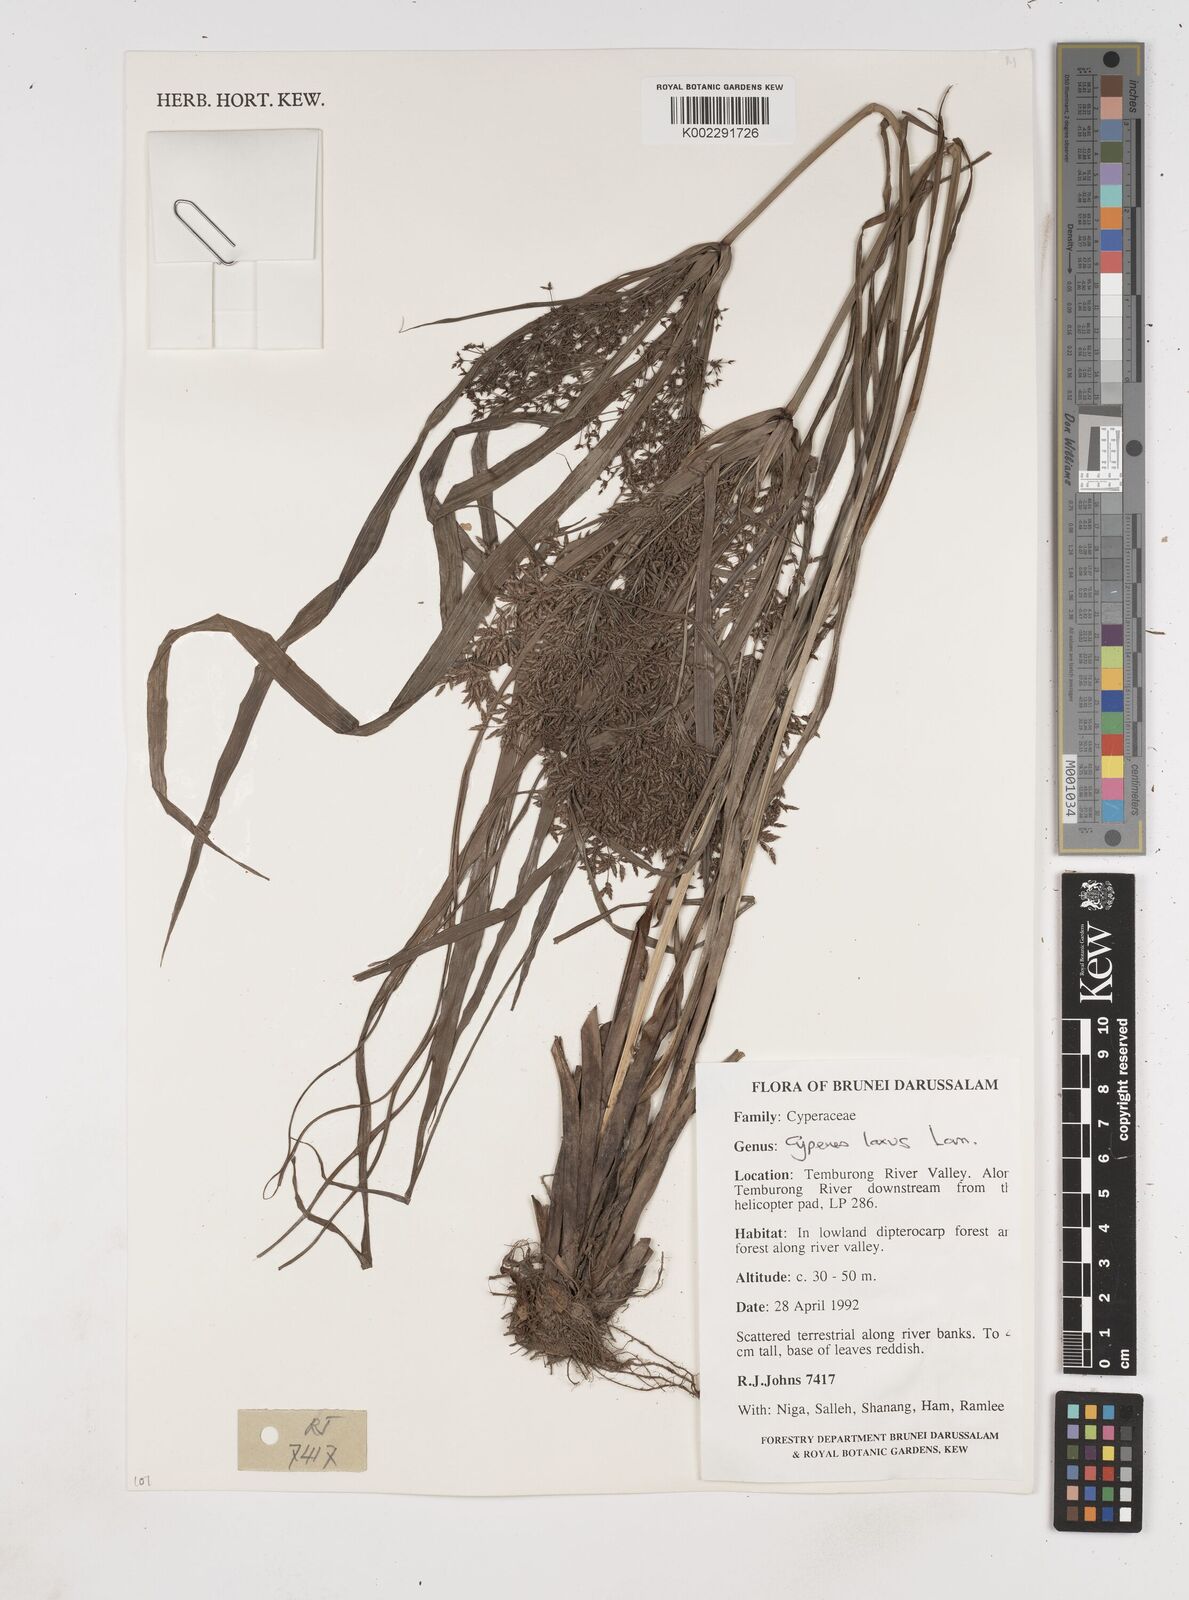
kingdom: Plantae
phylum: Tracheophyta
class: Liliopsida
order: Poales
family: Cyperaceae
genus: Cyperus
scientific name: Cyperus diffusus
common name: Dwarf umbrella grass
